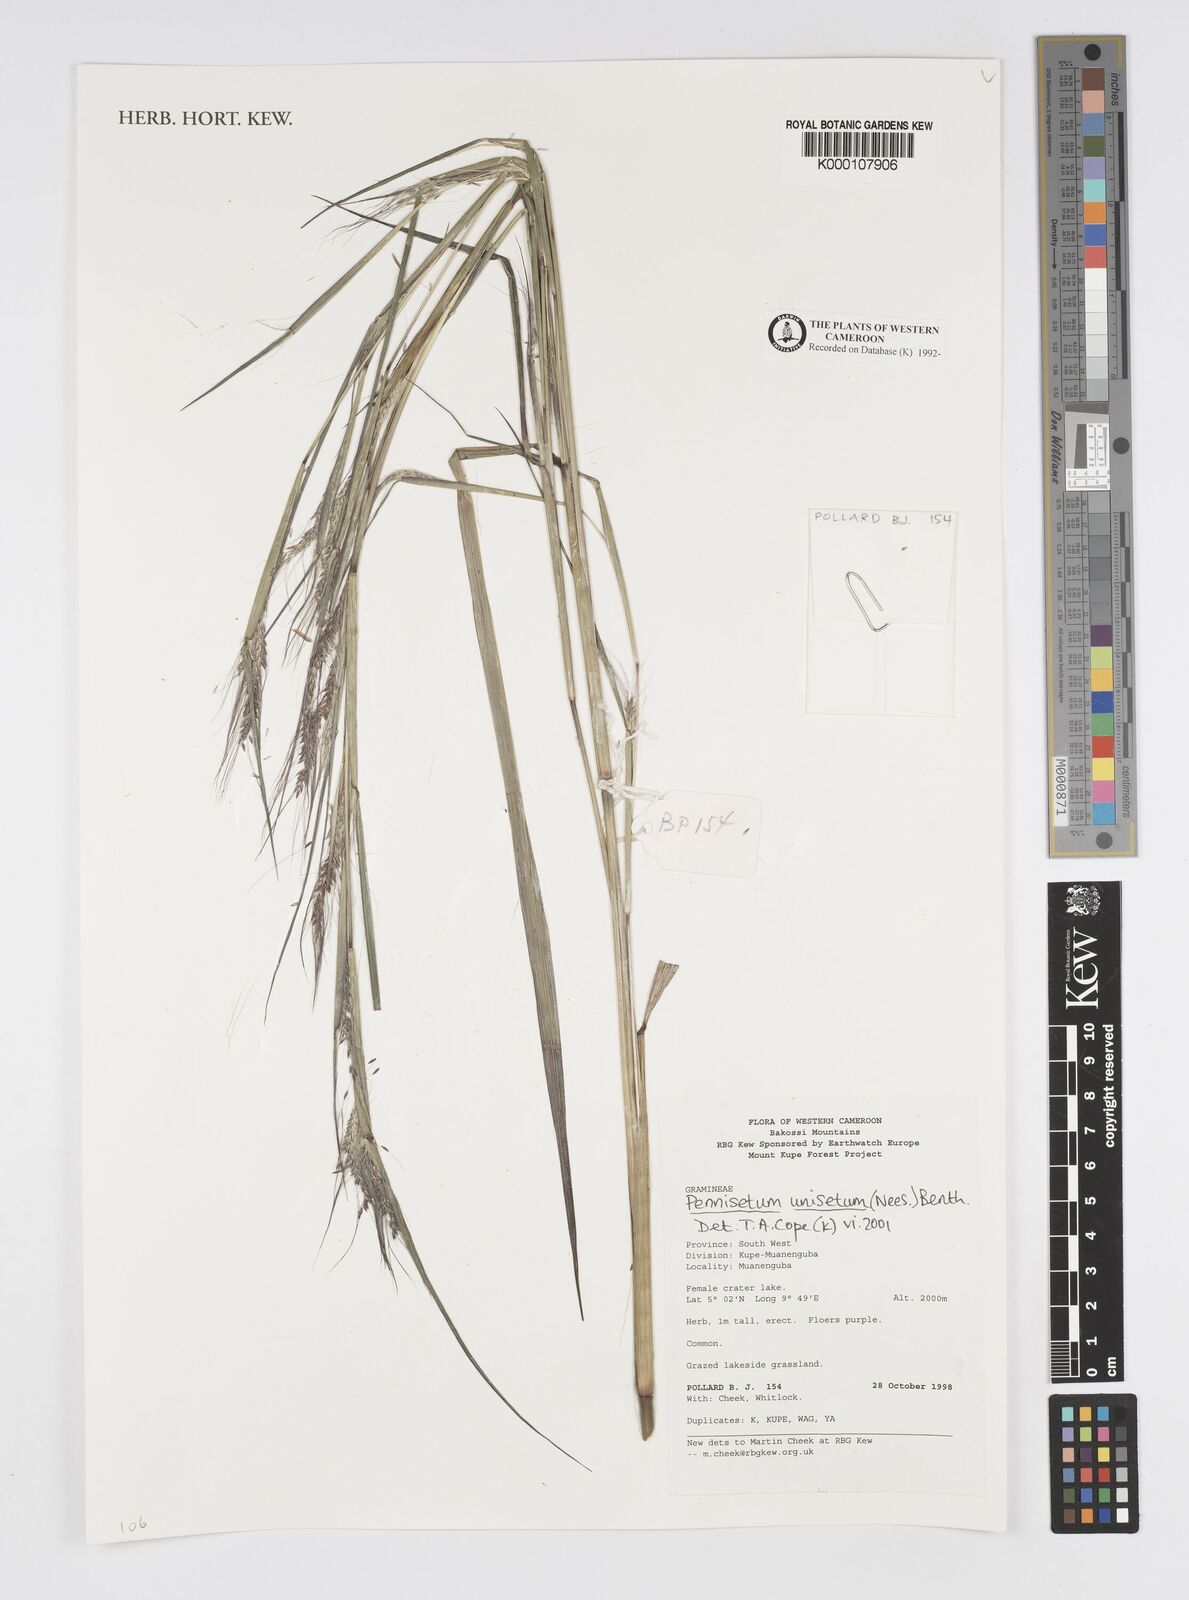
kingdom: Plantae
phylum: Tracheophyta
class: Liliopsida
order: Poales
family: Poaceae
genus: Cenchrus
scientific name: Cenchrus unisetus
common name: Natal grass
